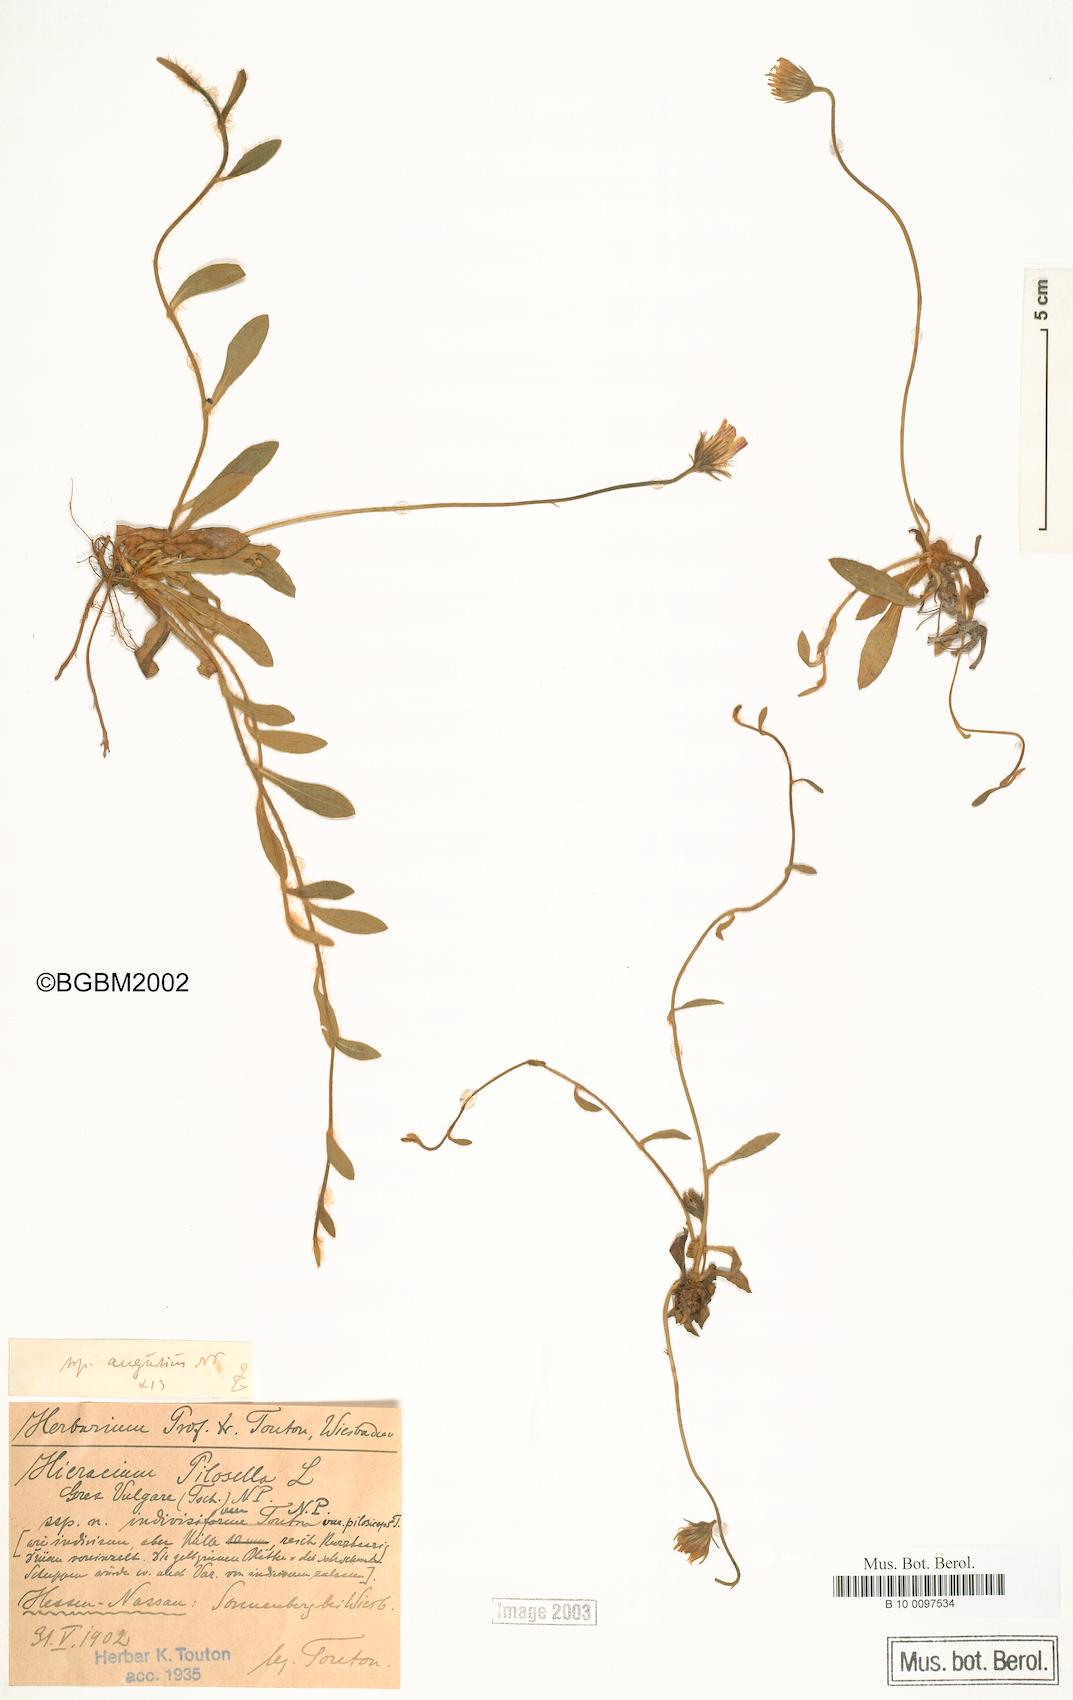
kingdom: Plantae
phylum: Tracheophyta
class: Magnoliopsida
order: Asterales
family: Asteraceae
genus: Pilosella
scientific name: Pilosella officinarum
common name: Mouse-ear hawkweed
